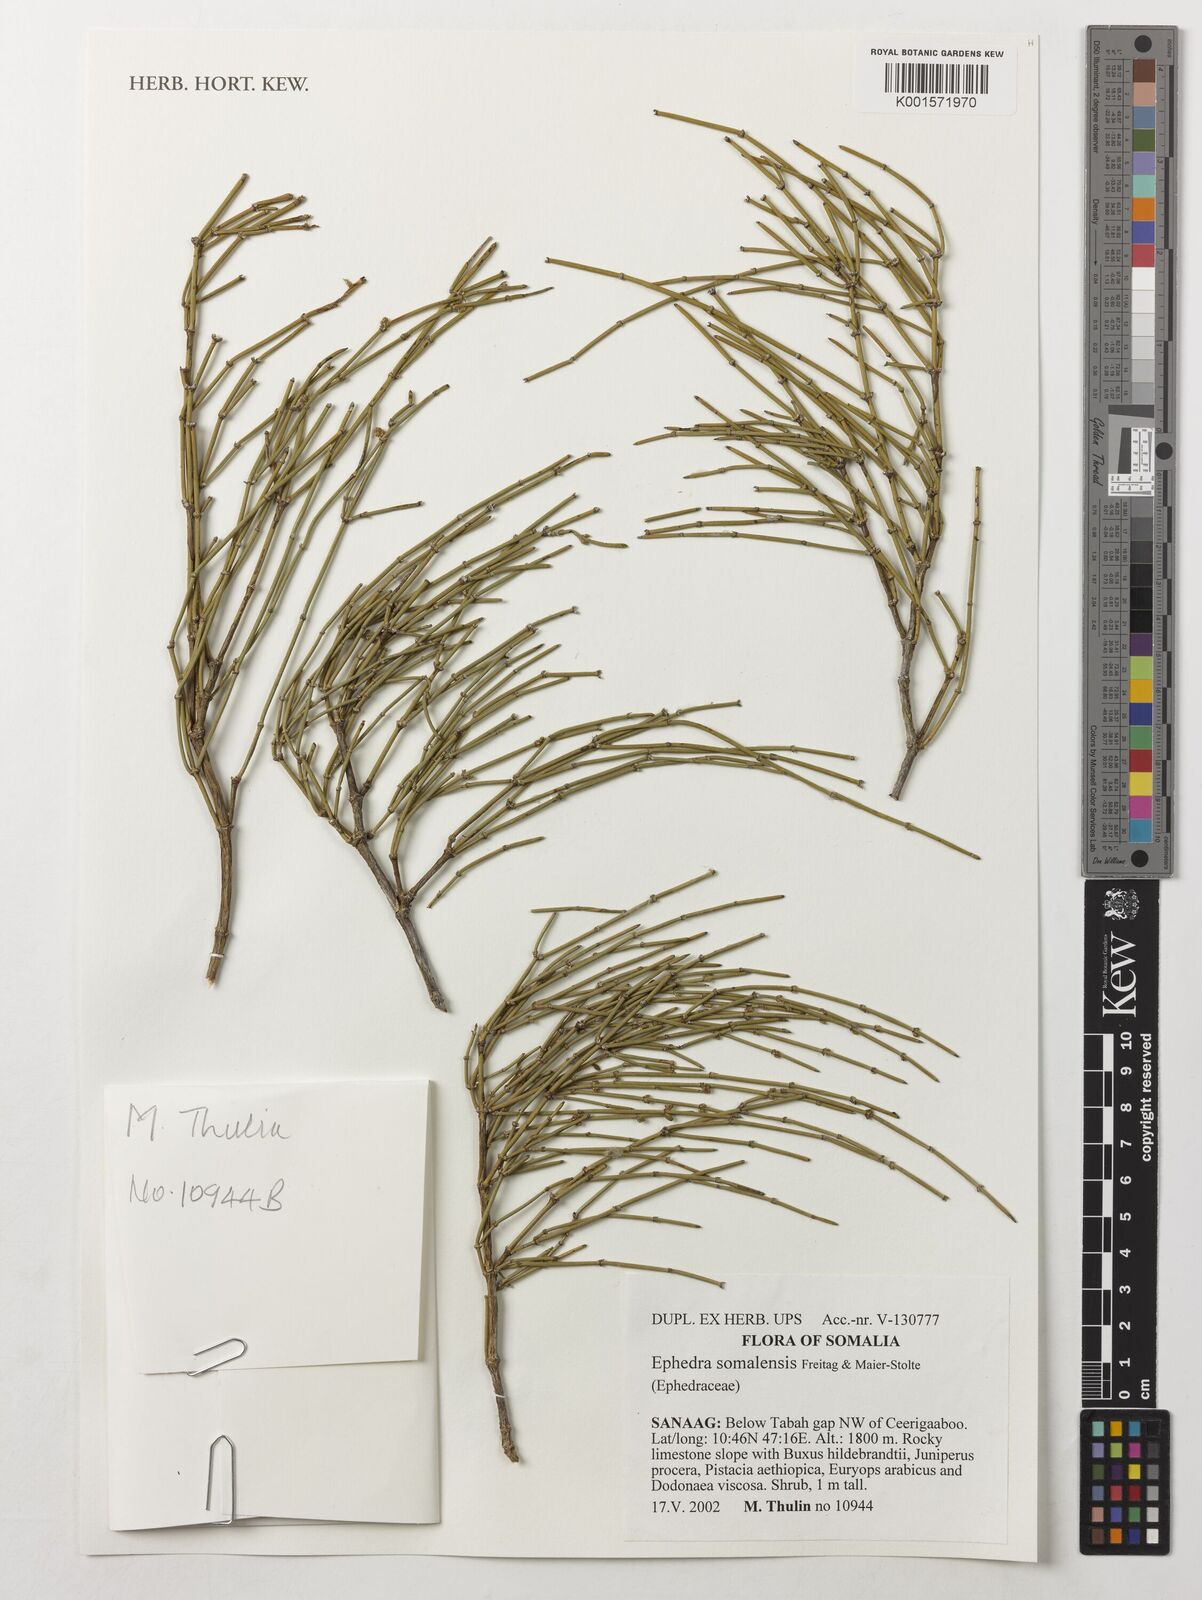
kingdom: Plantae
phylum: Tracheophyta
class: Gnetopsida
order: Ephedrales
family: Ephedraceae
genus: Ephedra
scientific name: Ephedra somalensis
